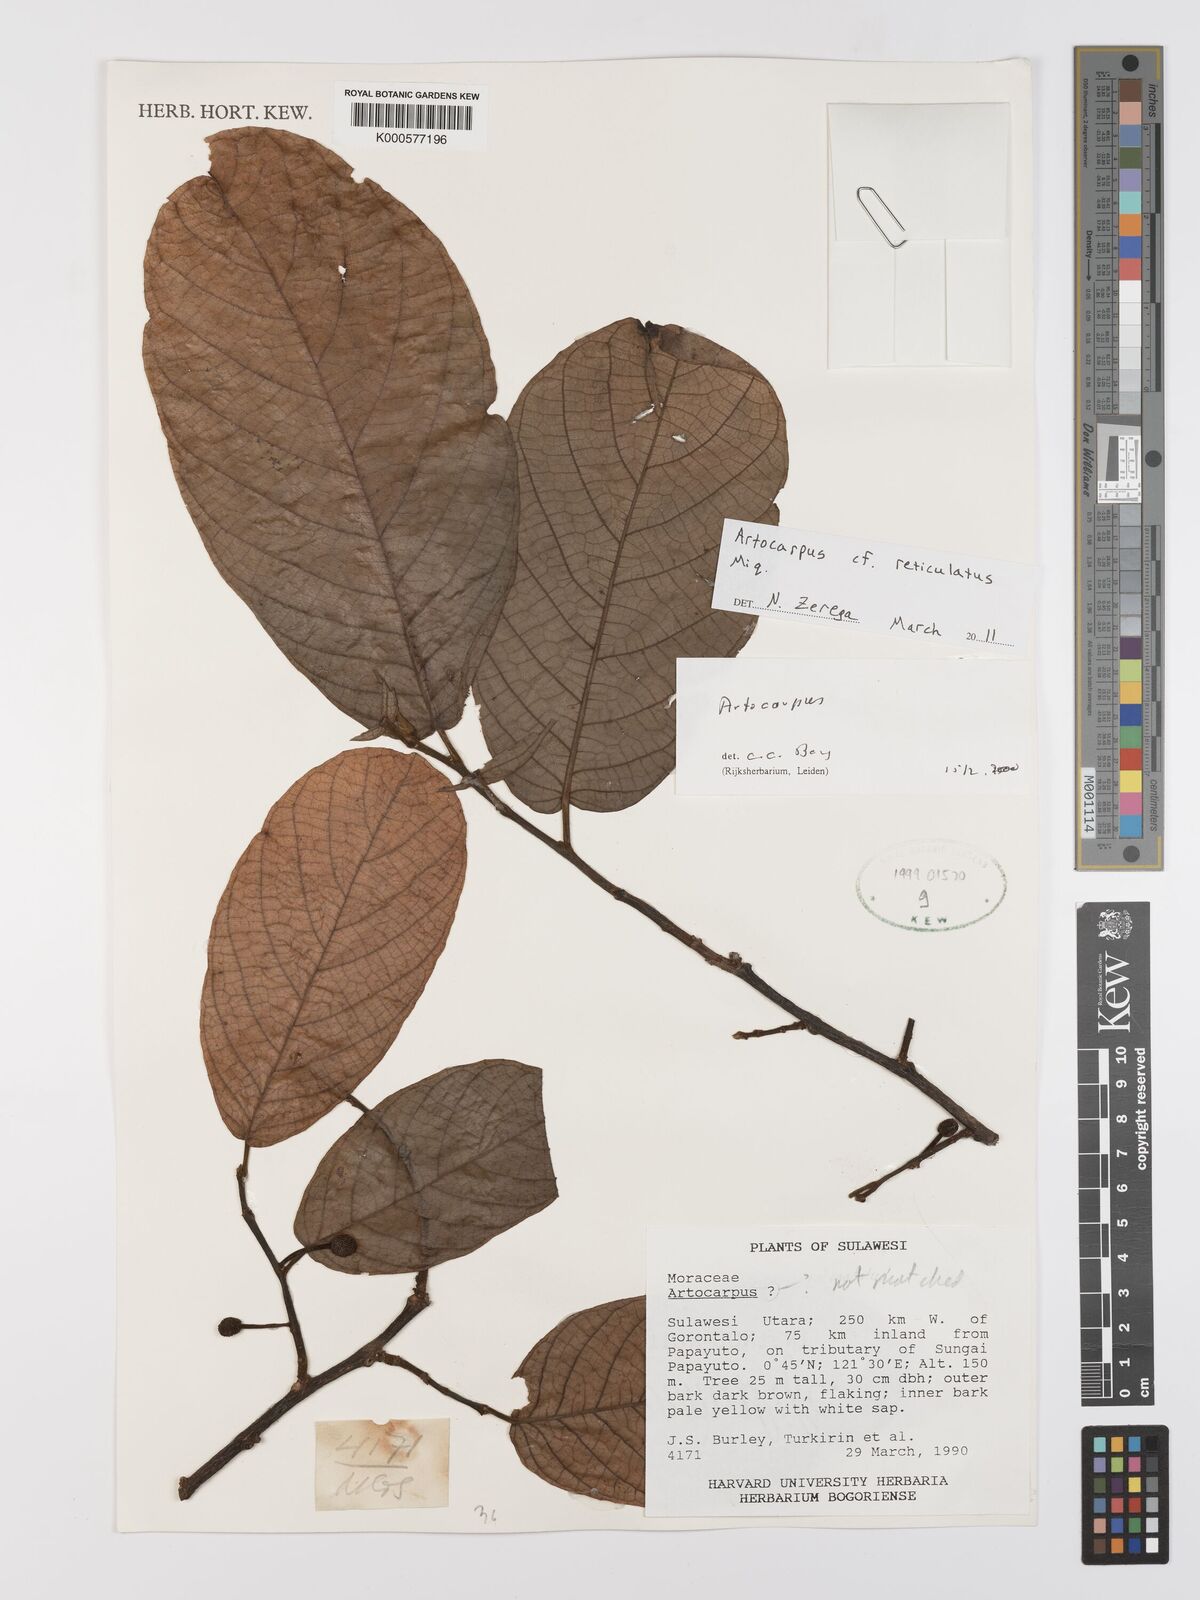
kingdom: Plantae
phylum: Tracheophyta
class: Magnoliopsida
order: Rosales
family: Moraceae
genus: Artocarpus
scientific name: Artocarpus reticulatus
